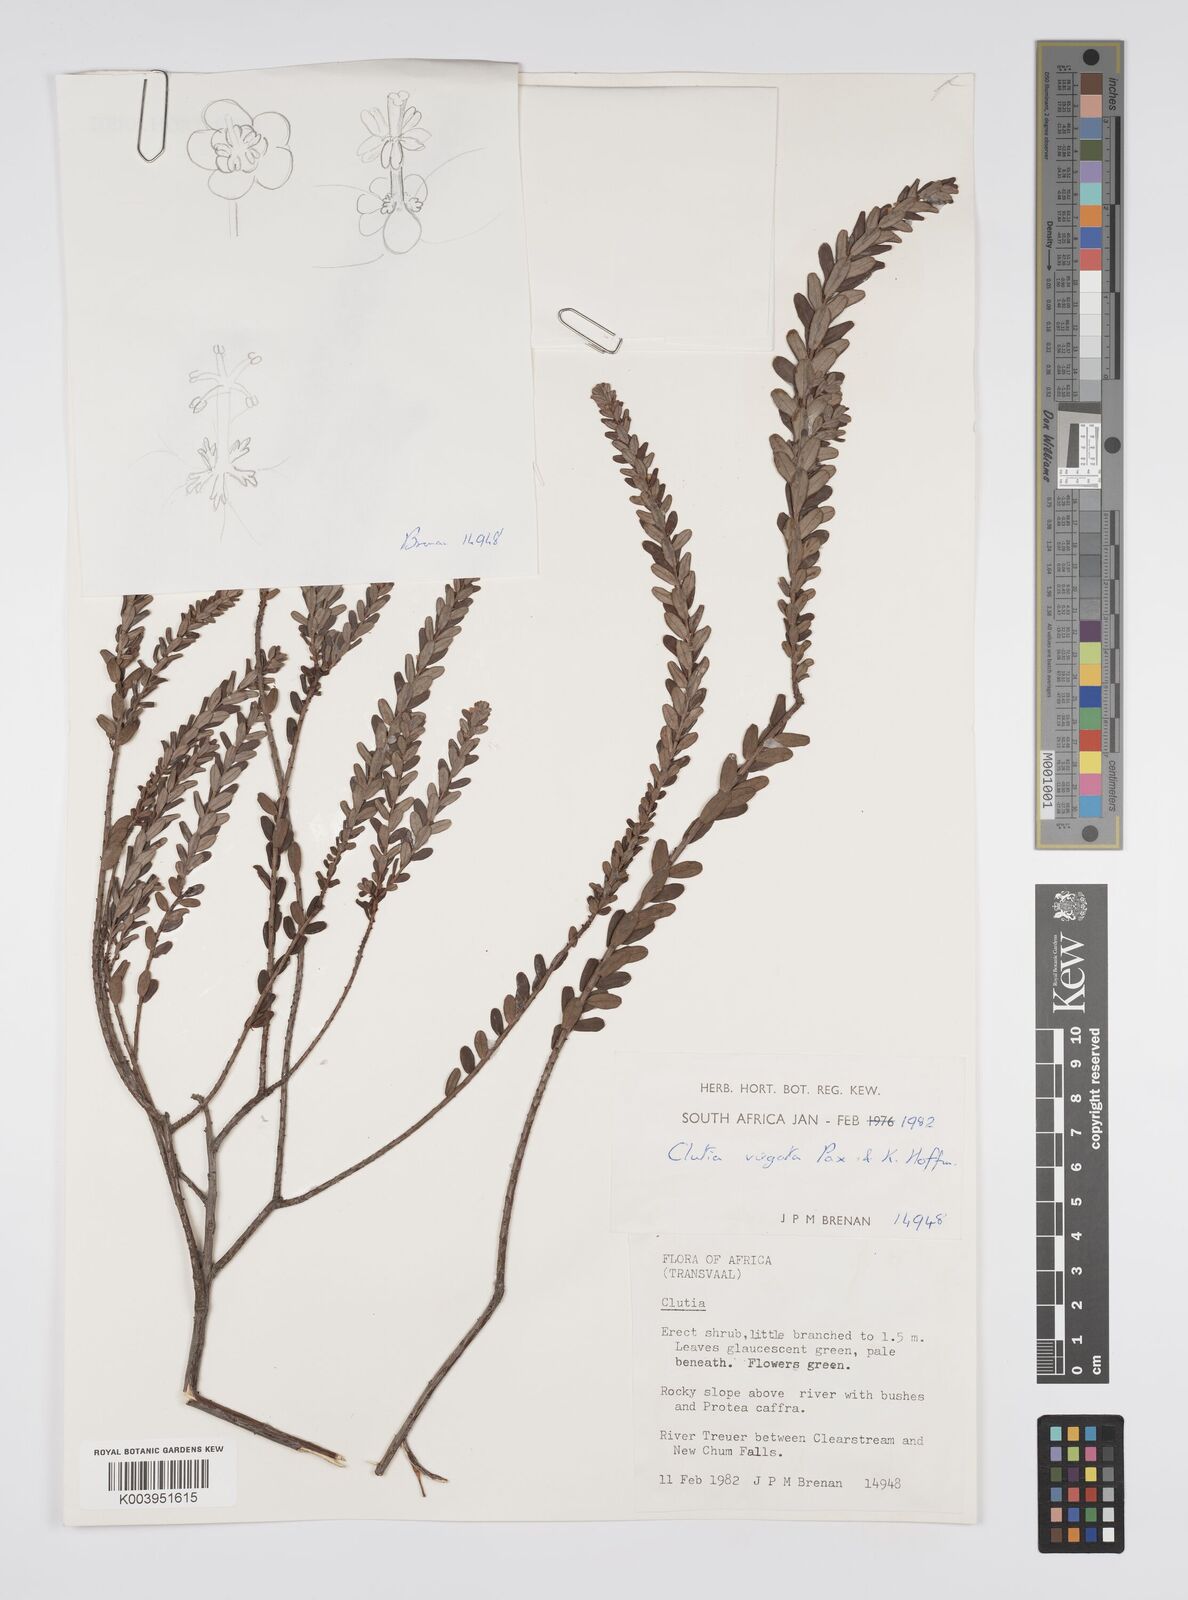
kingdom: Plantae
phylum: Tracheophyta
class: Magnoliopsida
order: Malpighiales
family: Peraceae
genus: Clutia
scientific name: Clutia virgata
